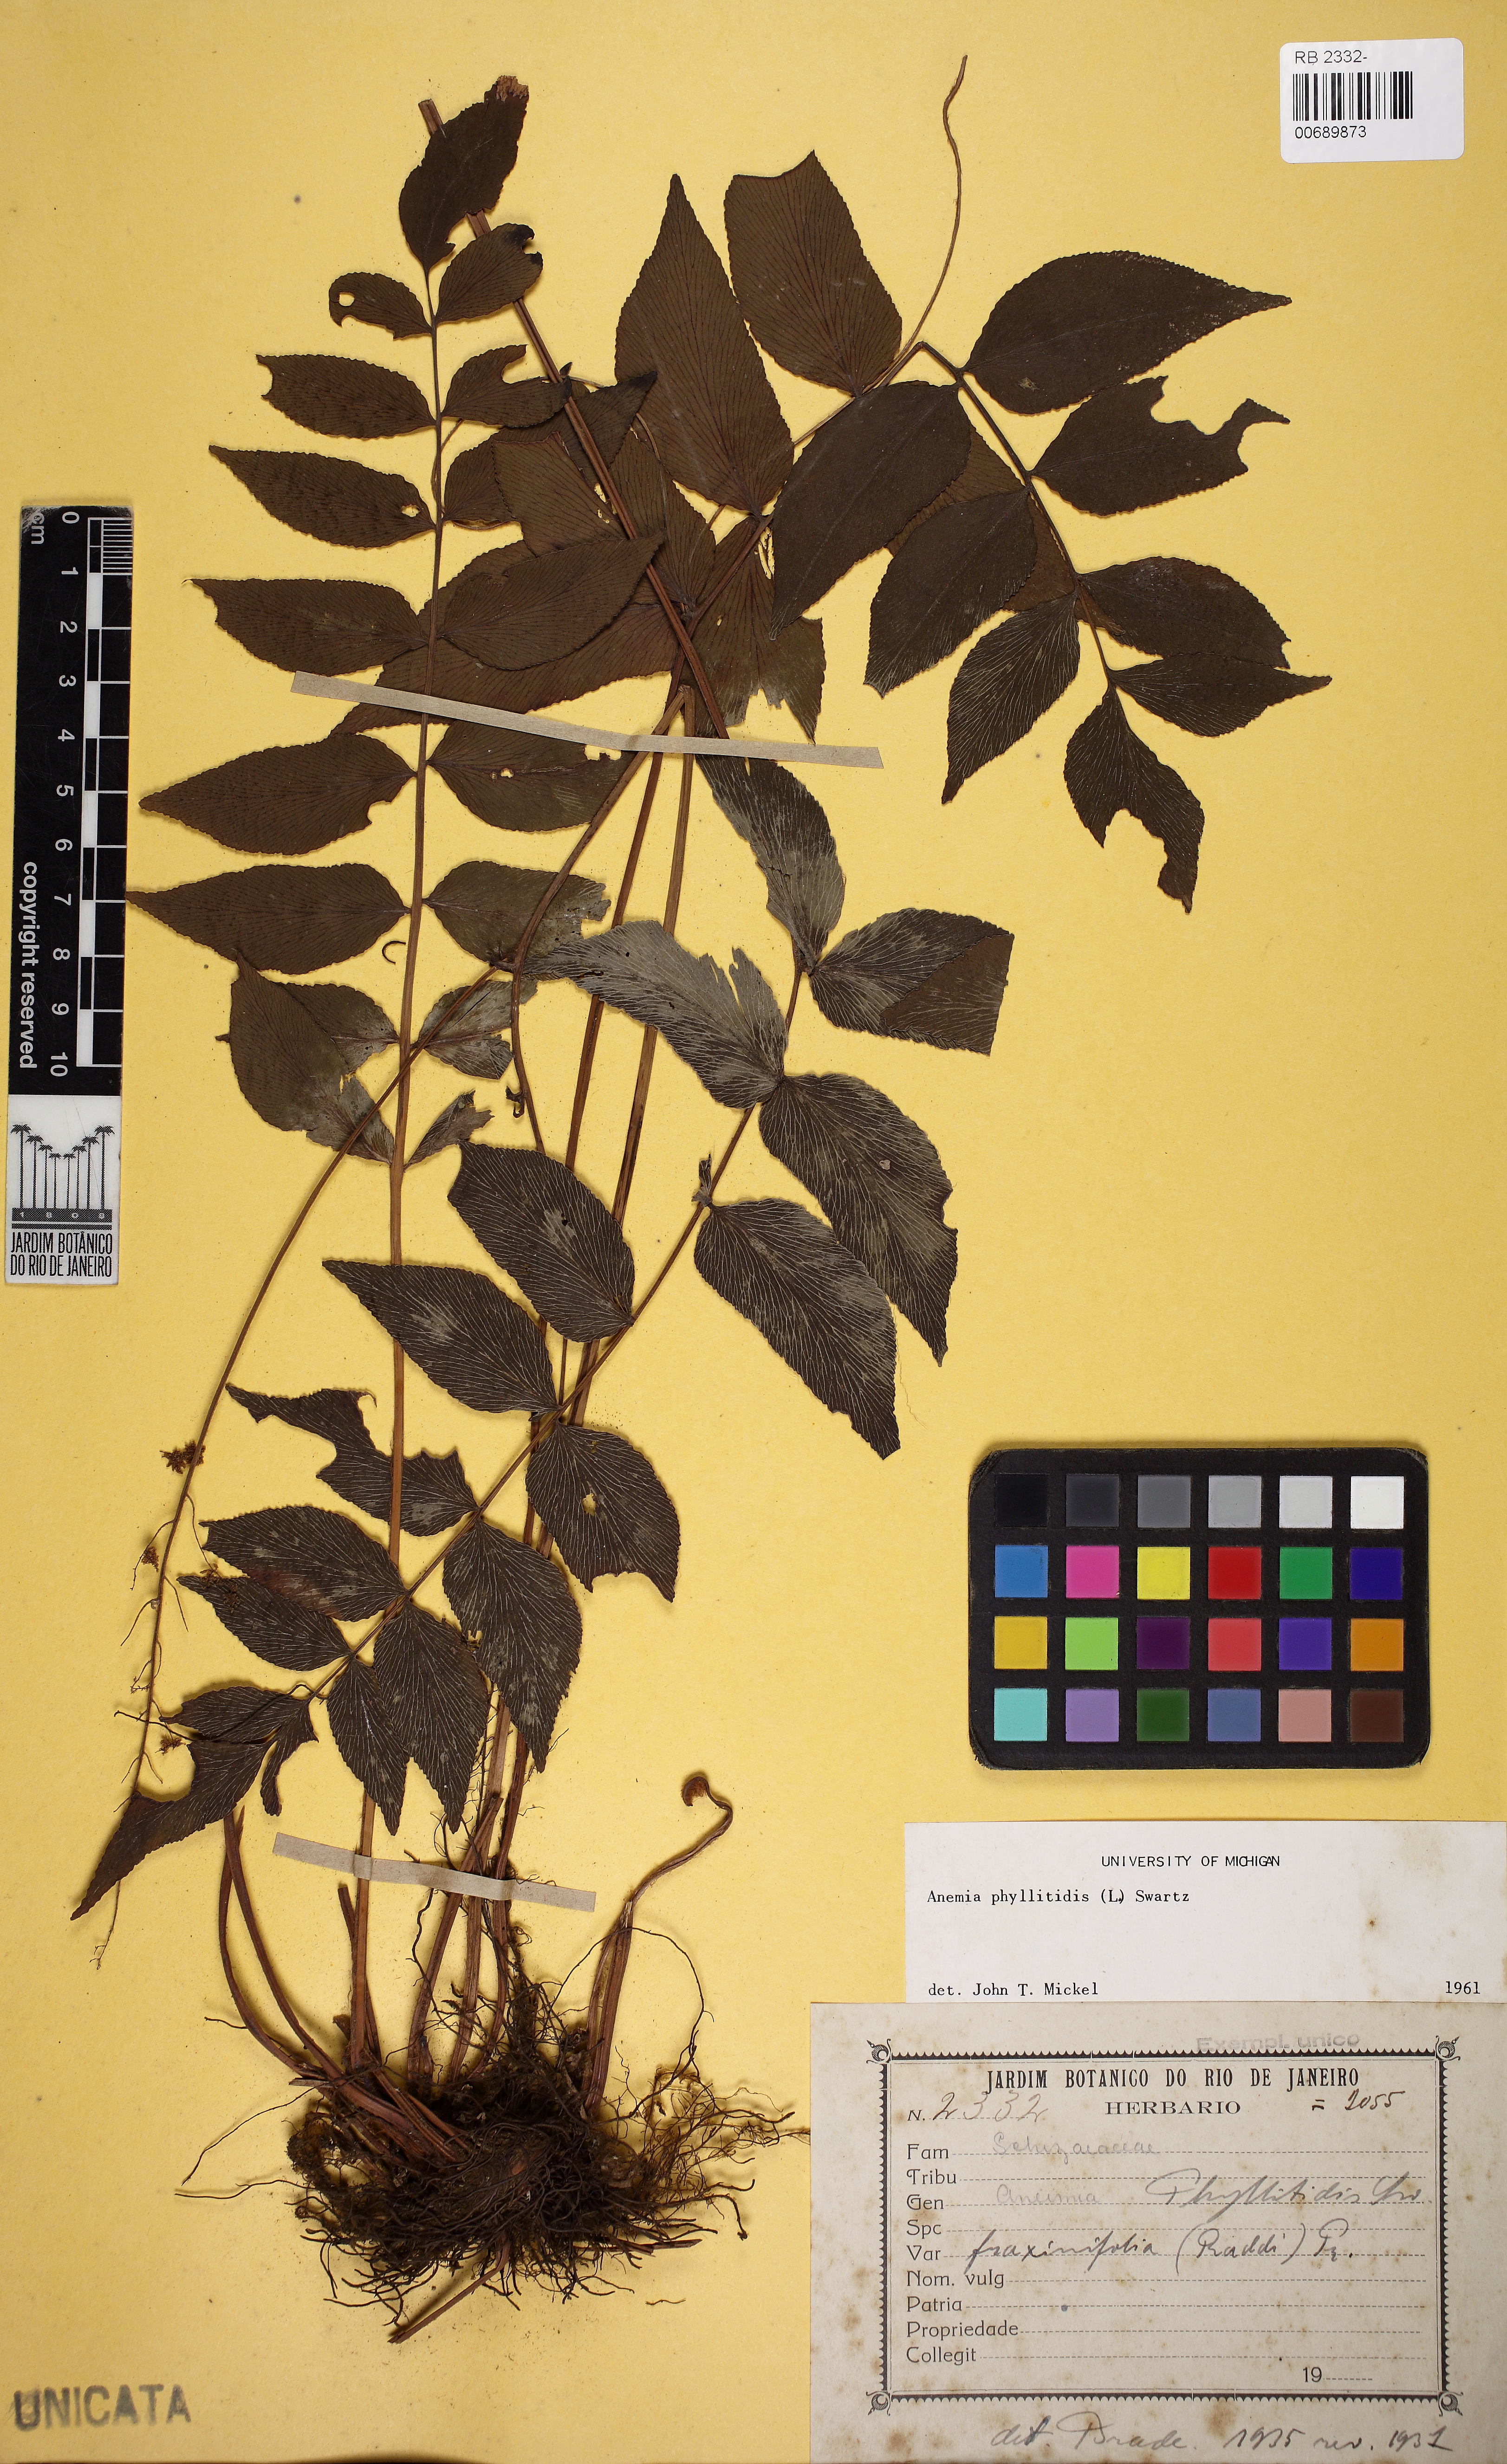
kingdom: Plantae
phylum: Tracheophyta
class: Polypodiopsida
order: Schizaeales
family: Anemiaceae
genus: Anemia
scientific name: Anemia phyllitidis
